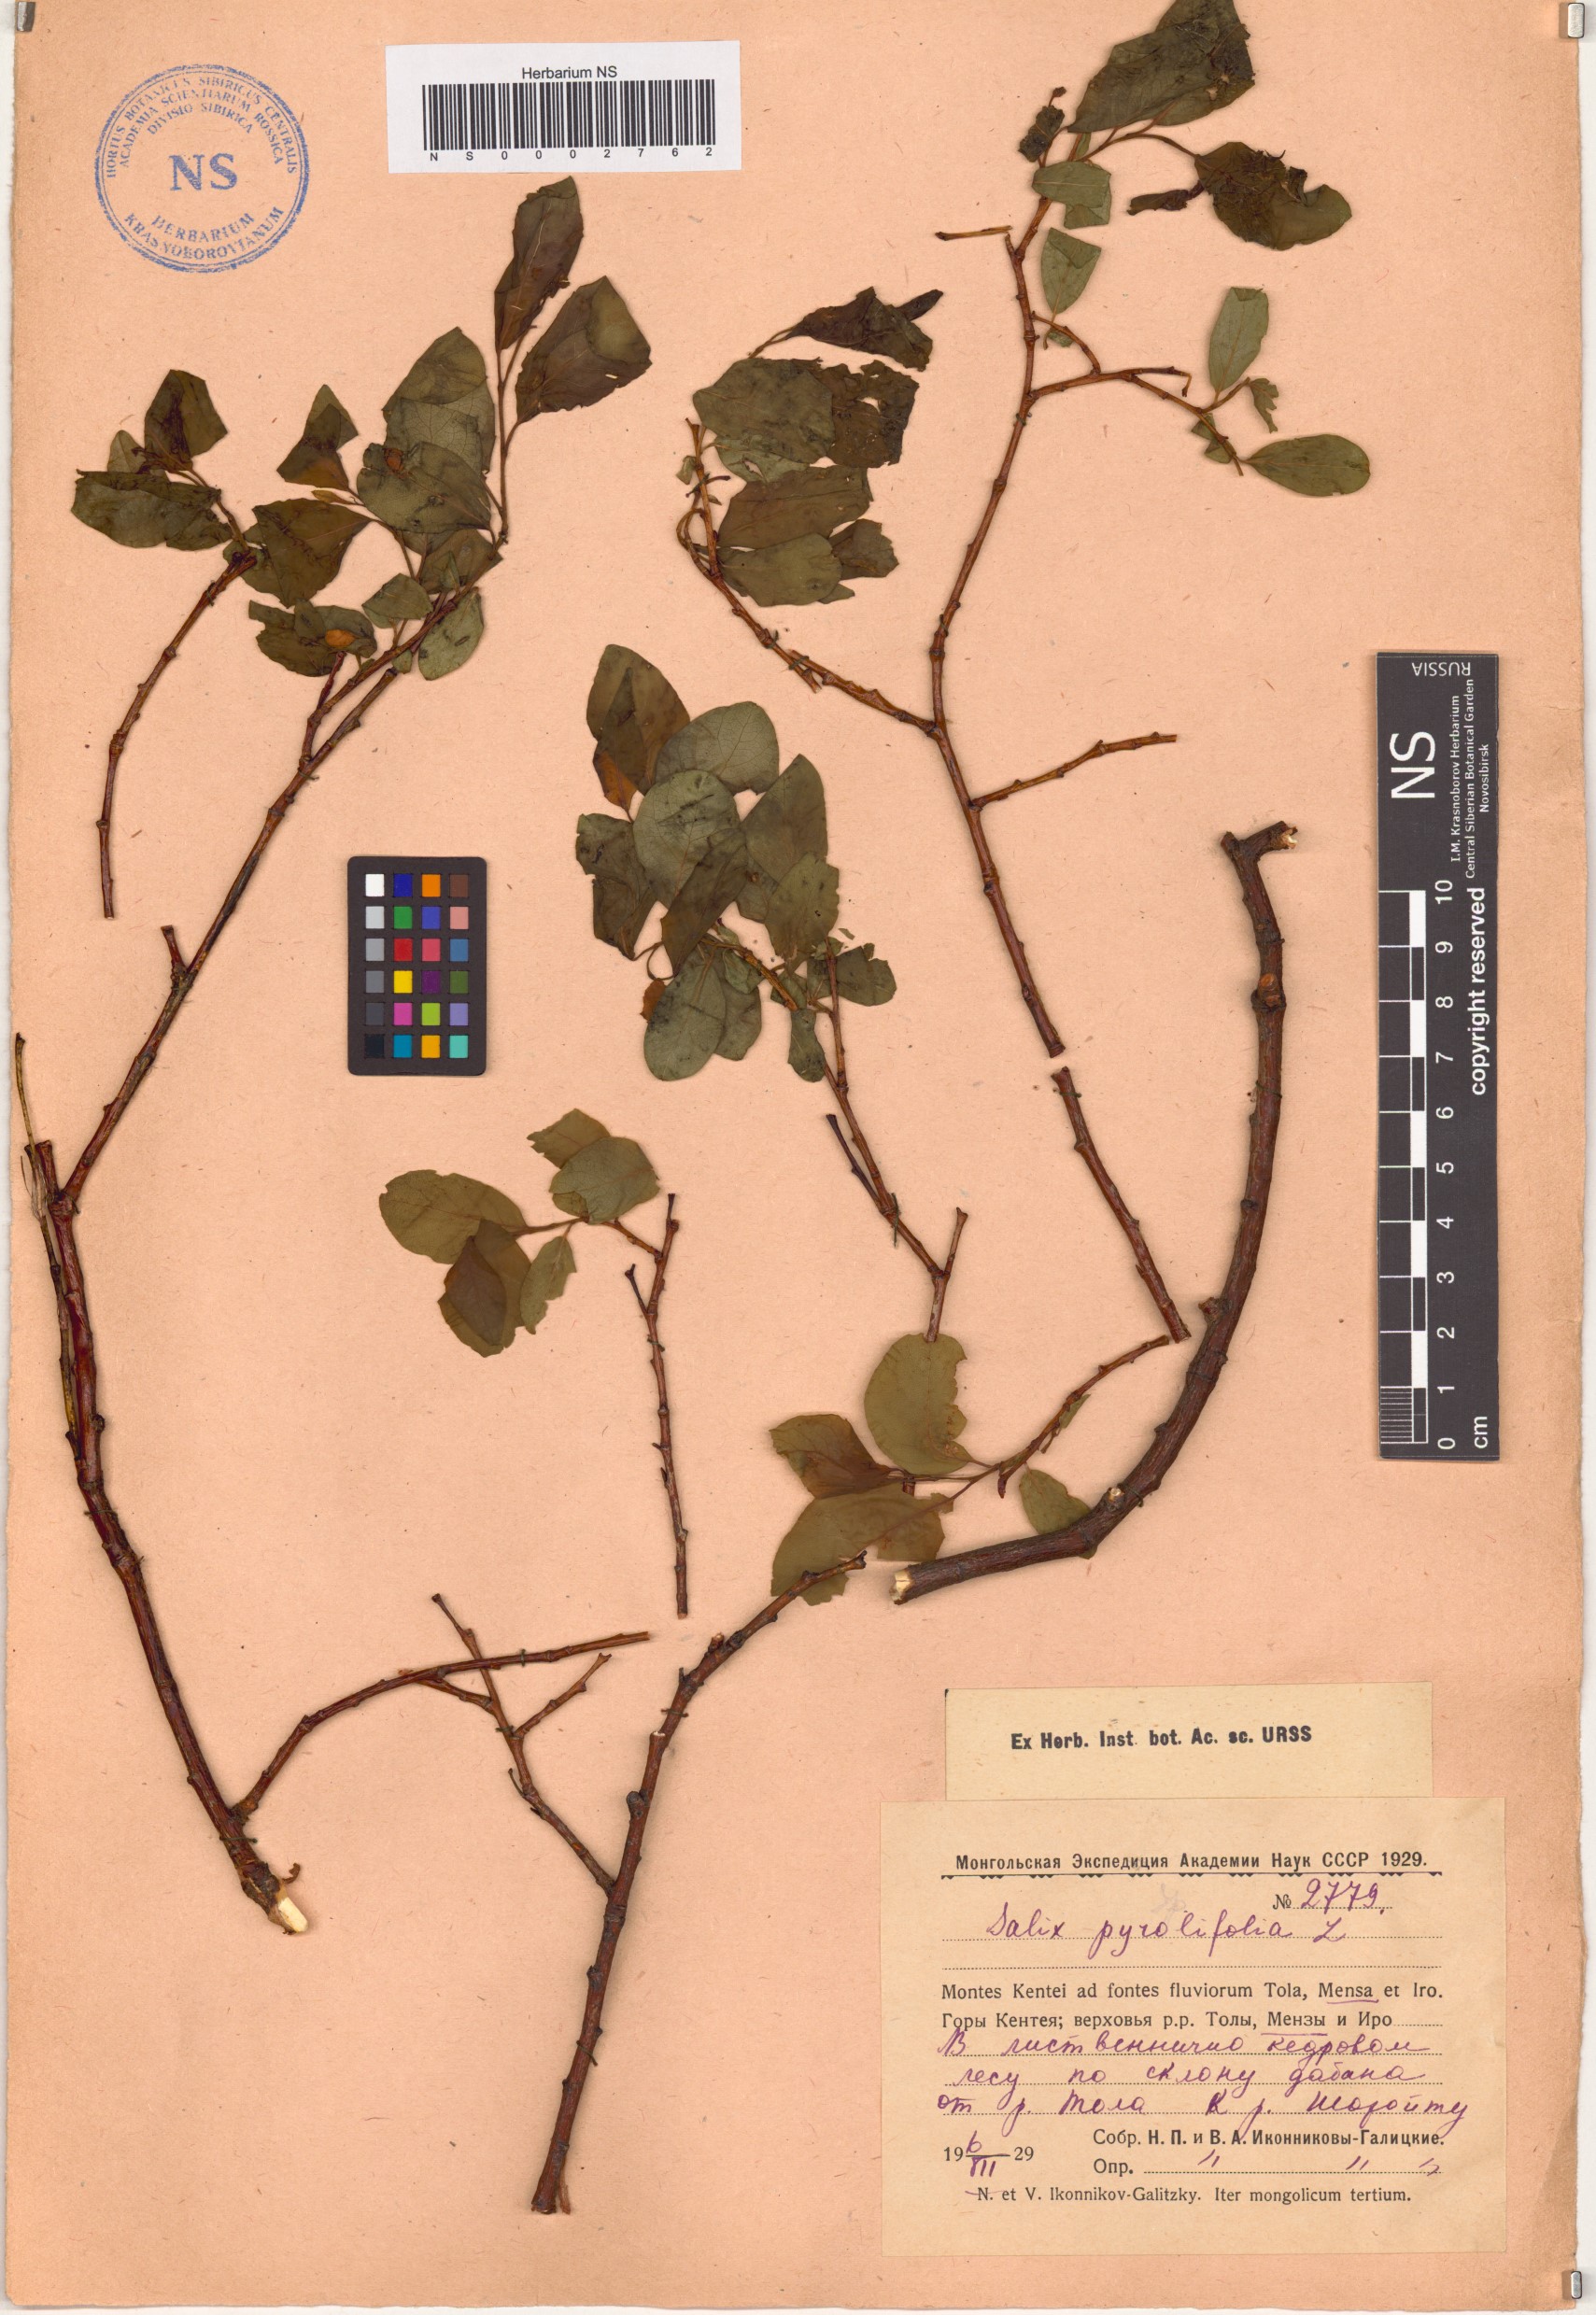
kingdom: Plantae
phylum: Tracheophyta
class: Magnoliopsida
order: Malpighiales
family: Salicaceae
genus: Salix
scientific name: Salix pyrolifolia
